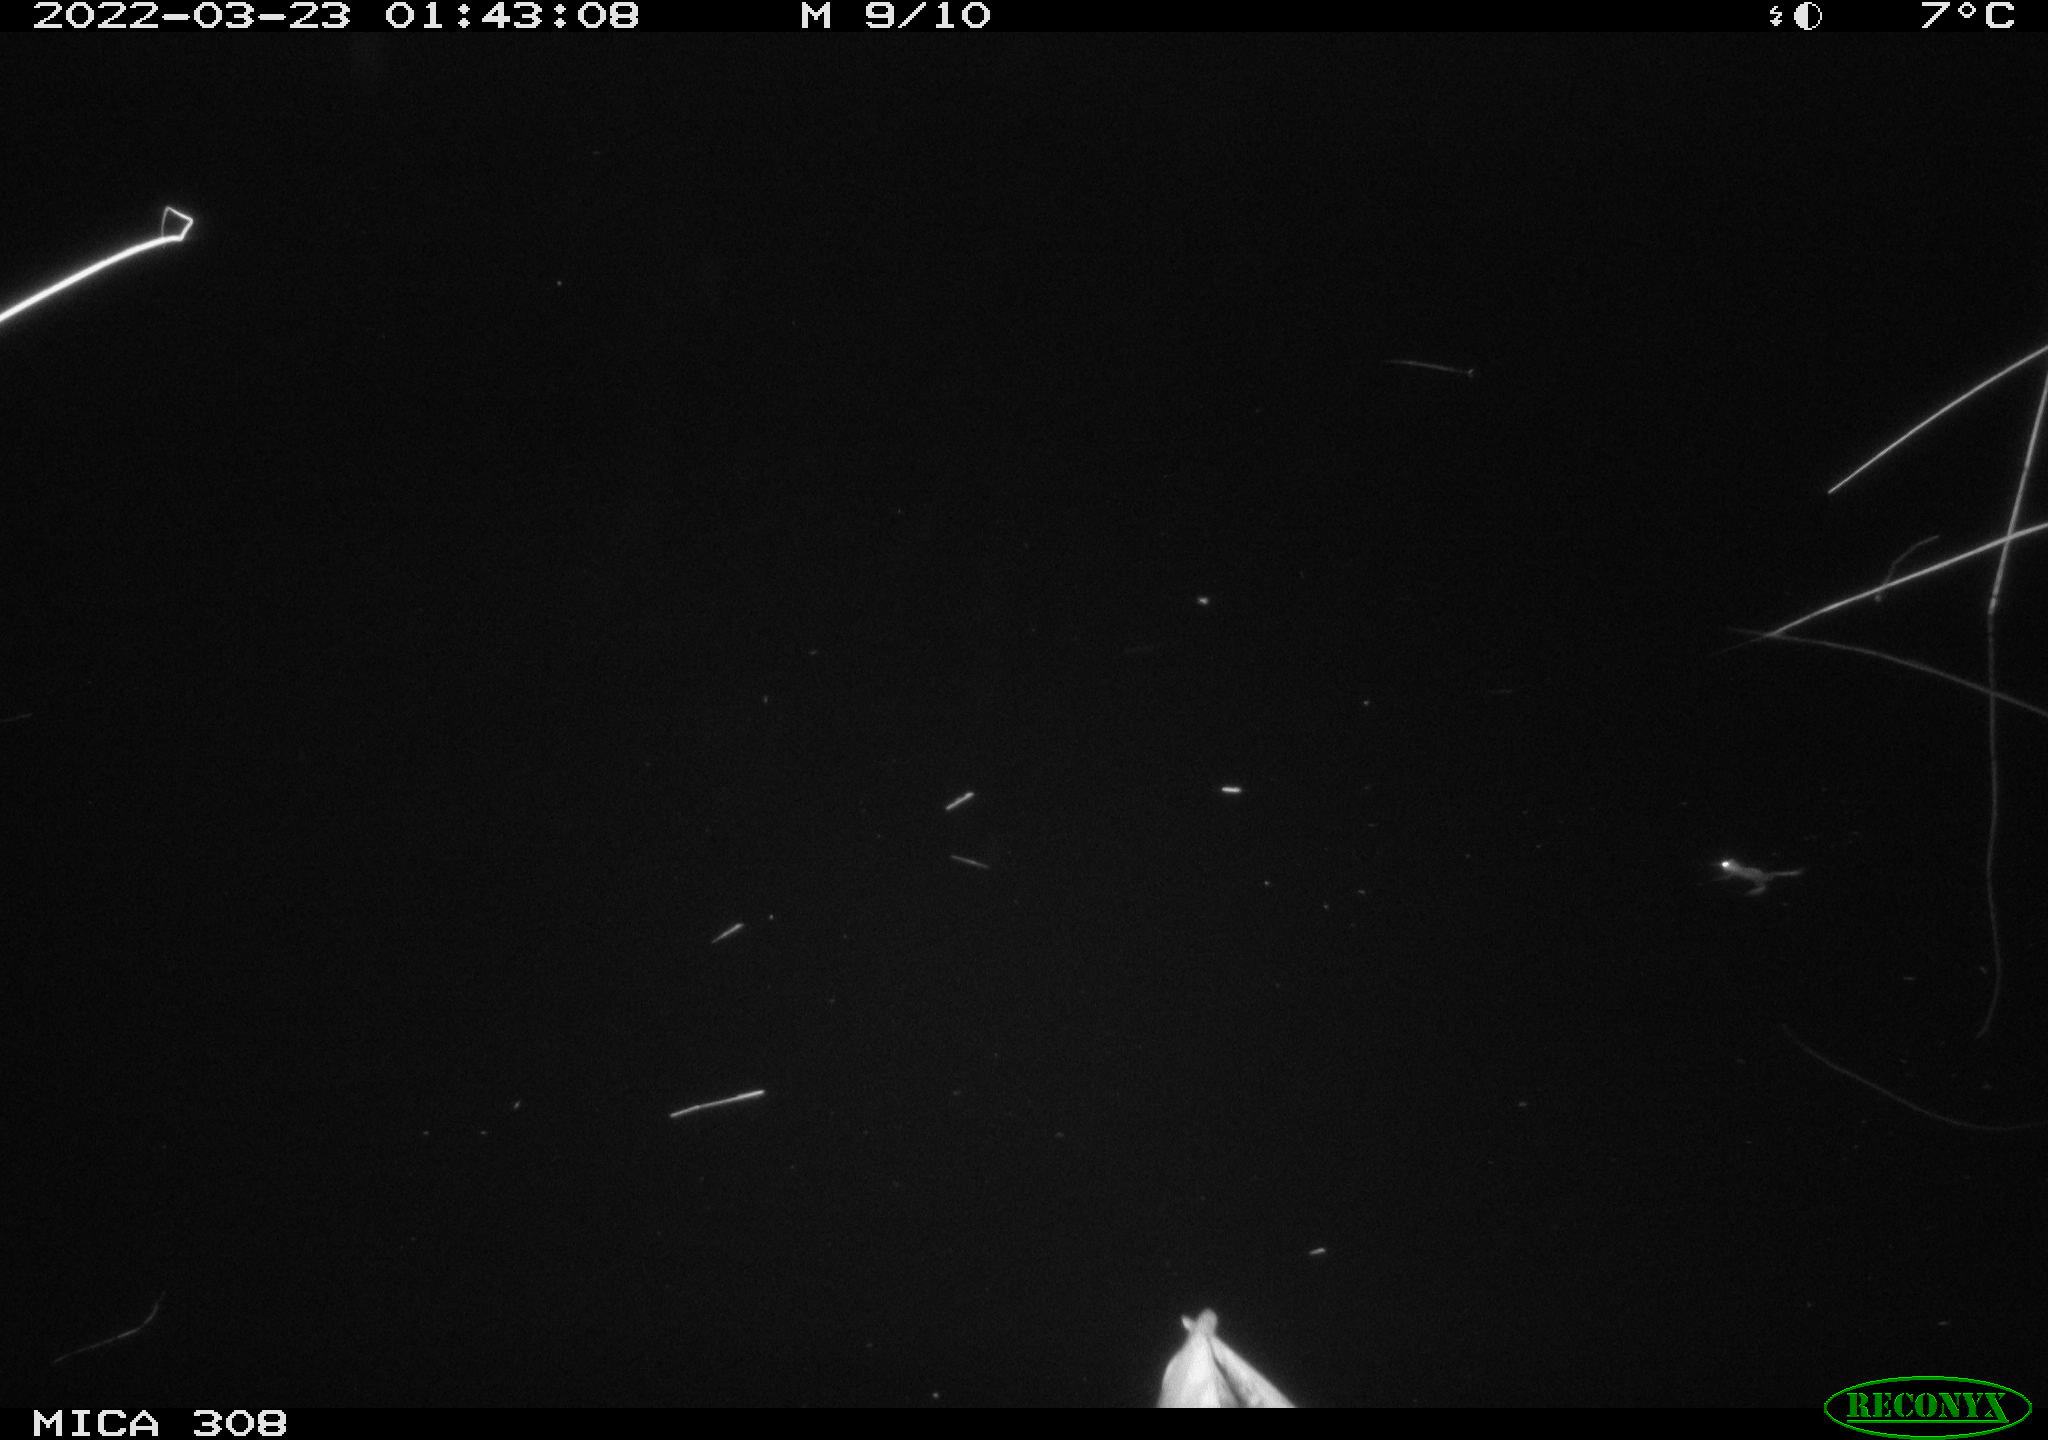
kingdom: Animalia
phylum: Chordata
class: Aves
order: Anseriformes
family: Anatidae
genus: Anas
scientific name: Anas platyrhynchos
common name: Mallard
